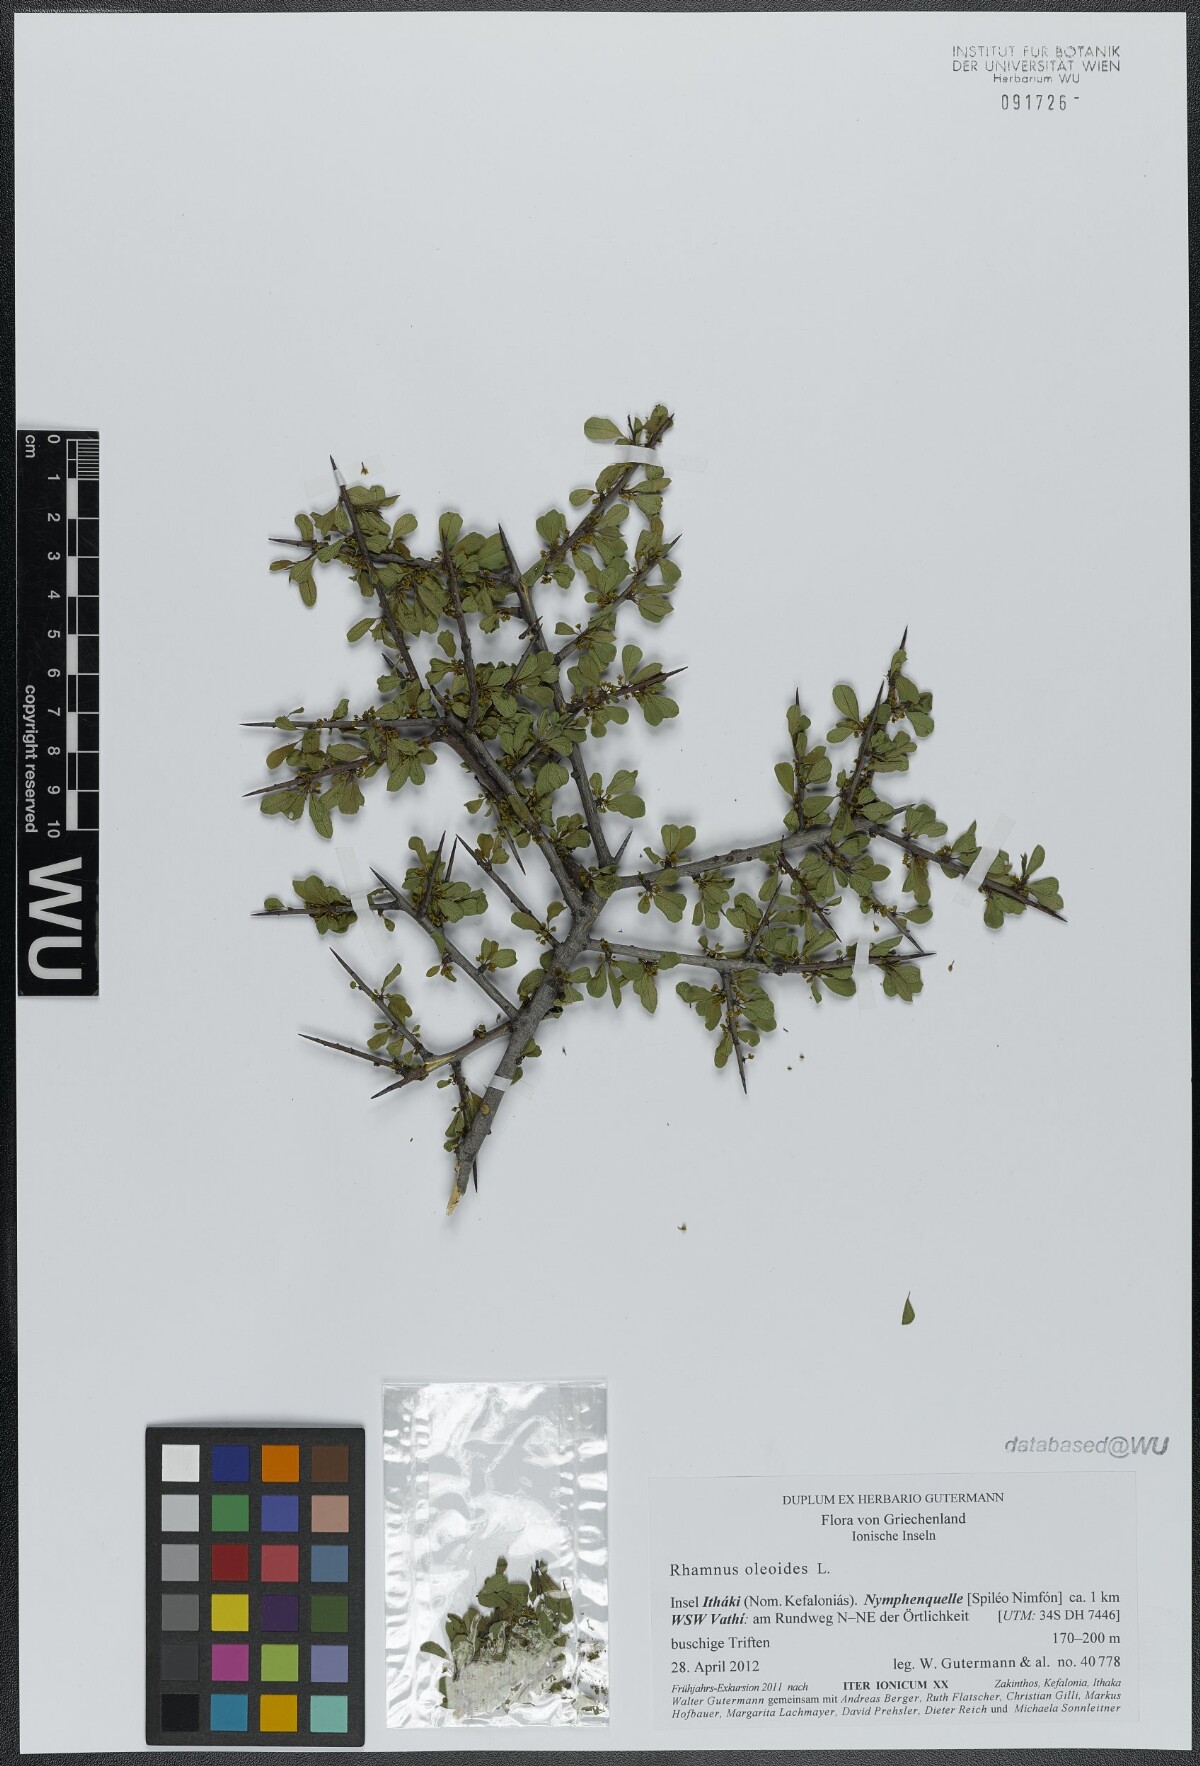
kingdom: Plantae
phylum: Tracheophyta
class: Magnoliopsida
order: Rosales
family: Rhamnaceae
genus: Rhamnus
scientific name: Rhamnus oleoides
